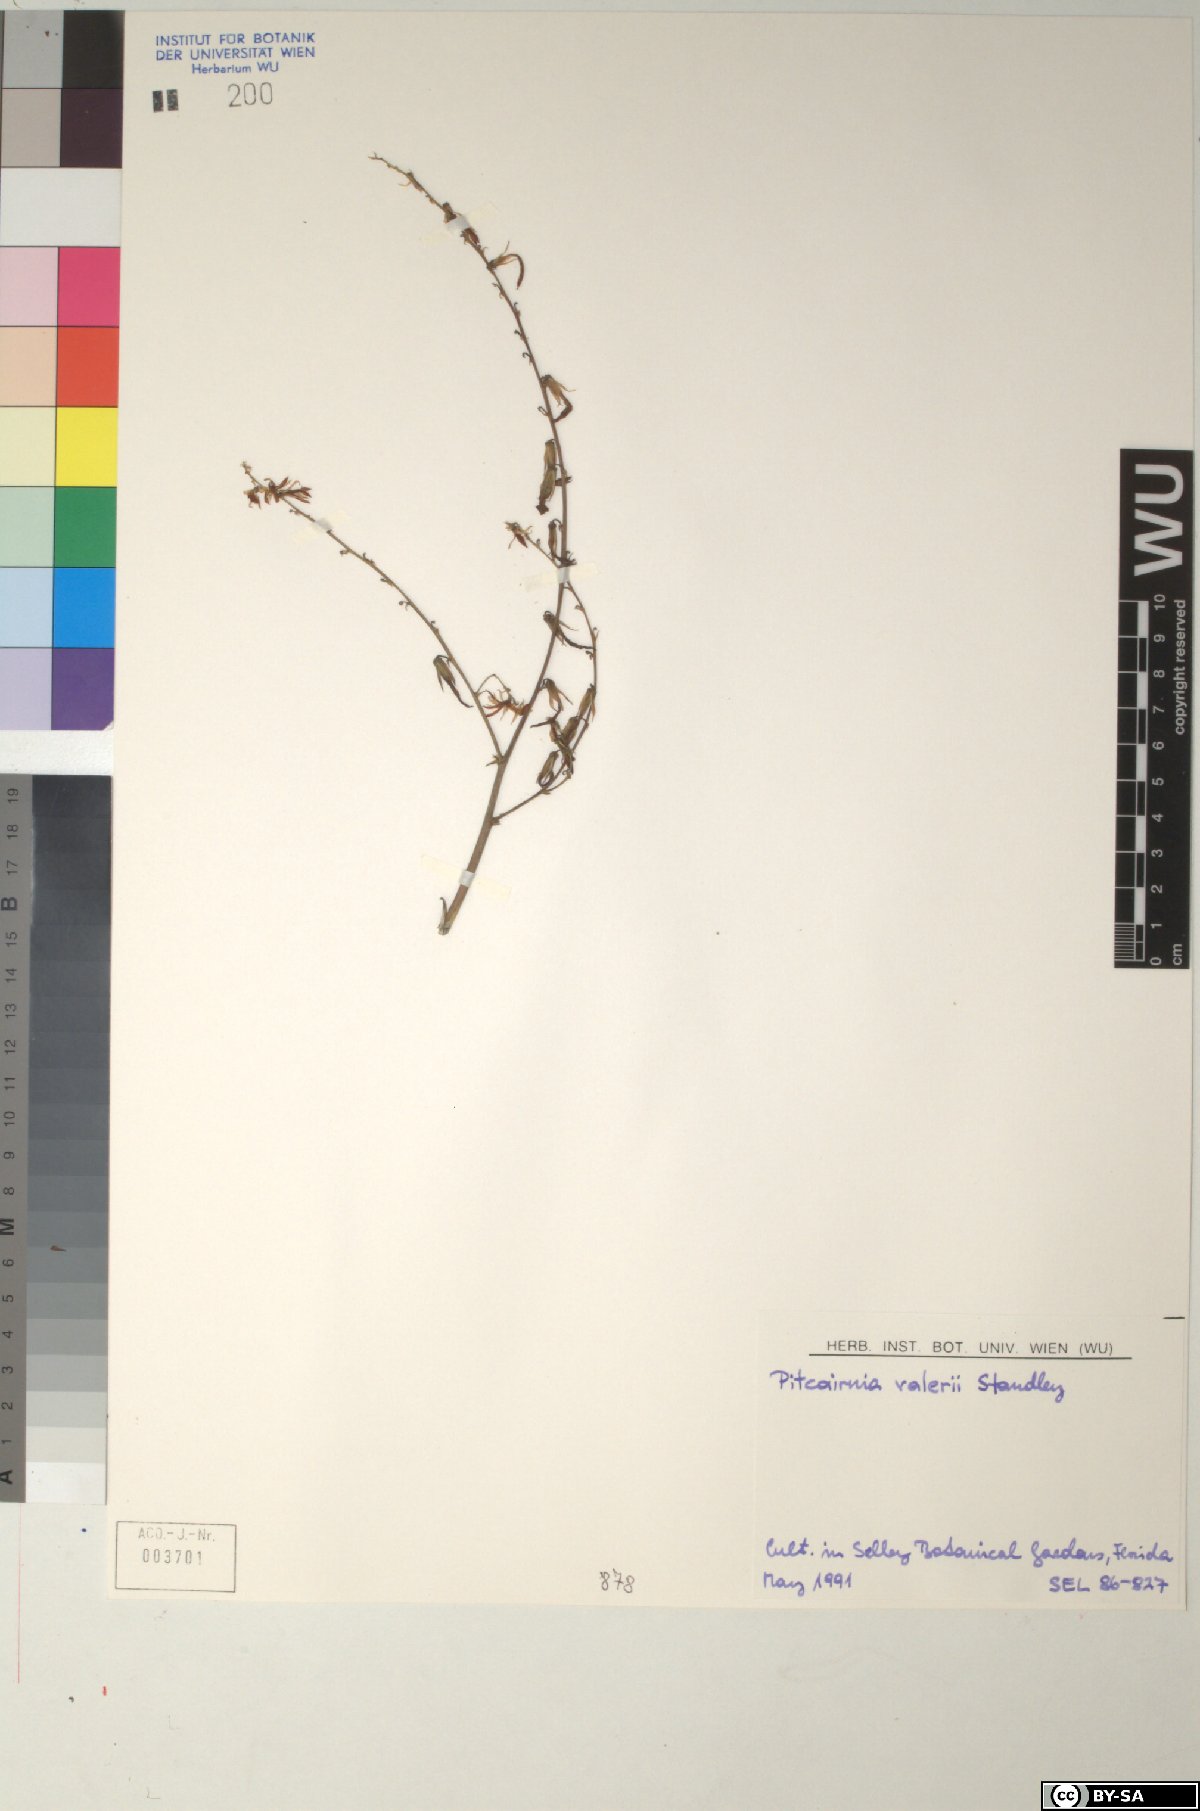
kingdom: Plantae
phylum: Tracheophyta
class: Liliopsida
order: Poales
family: Bromeliaceae
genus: Pitcairnia
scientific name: Pitcairnia valerii
